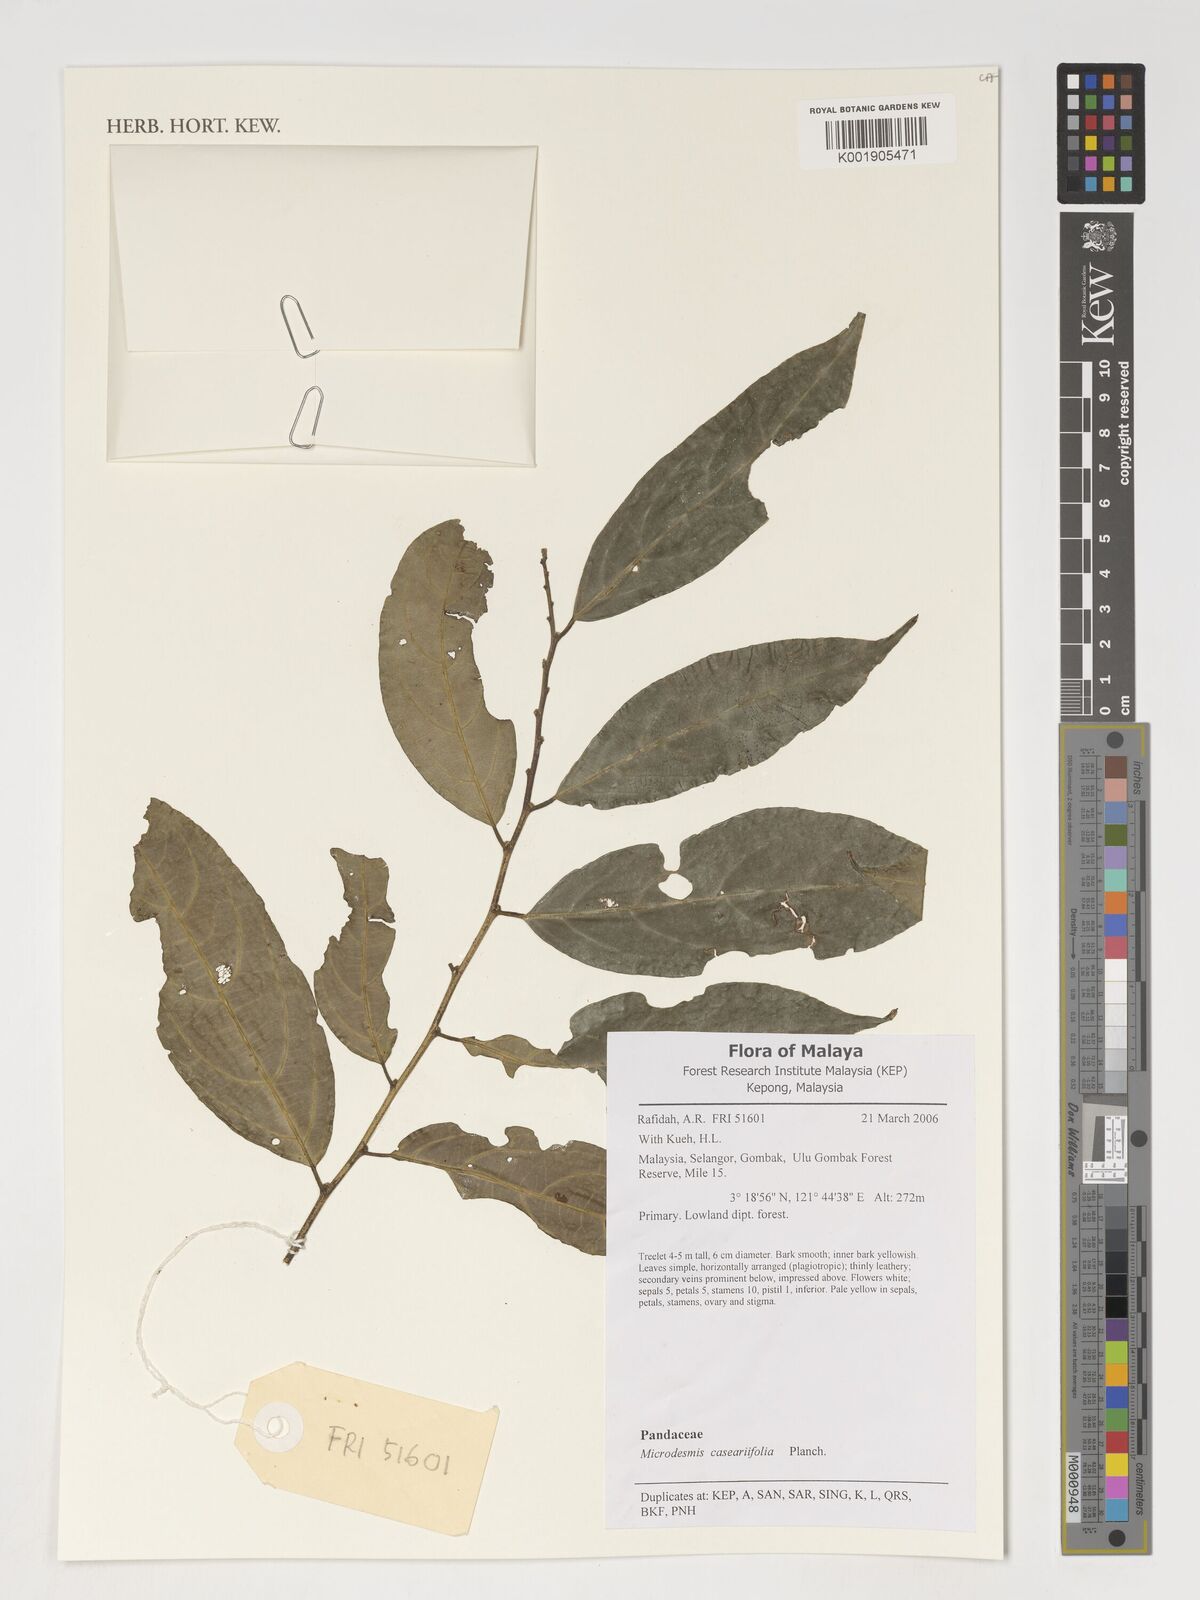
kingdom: Plantae
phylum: Tracheophyta
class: Magnoliopsida
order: Malpighiales
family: Pandaceae
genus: Microdesmis
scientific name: Microdesmis caseariifolia
